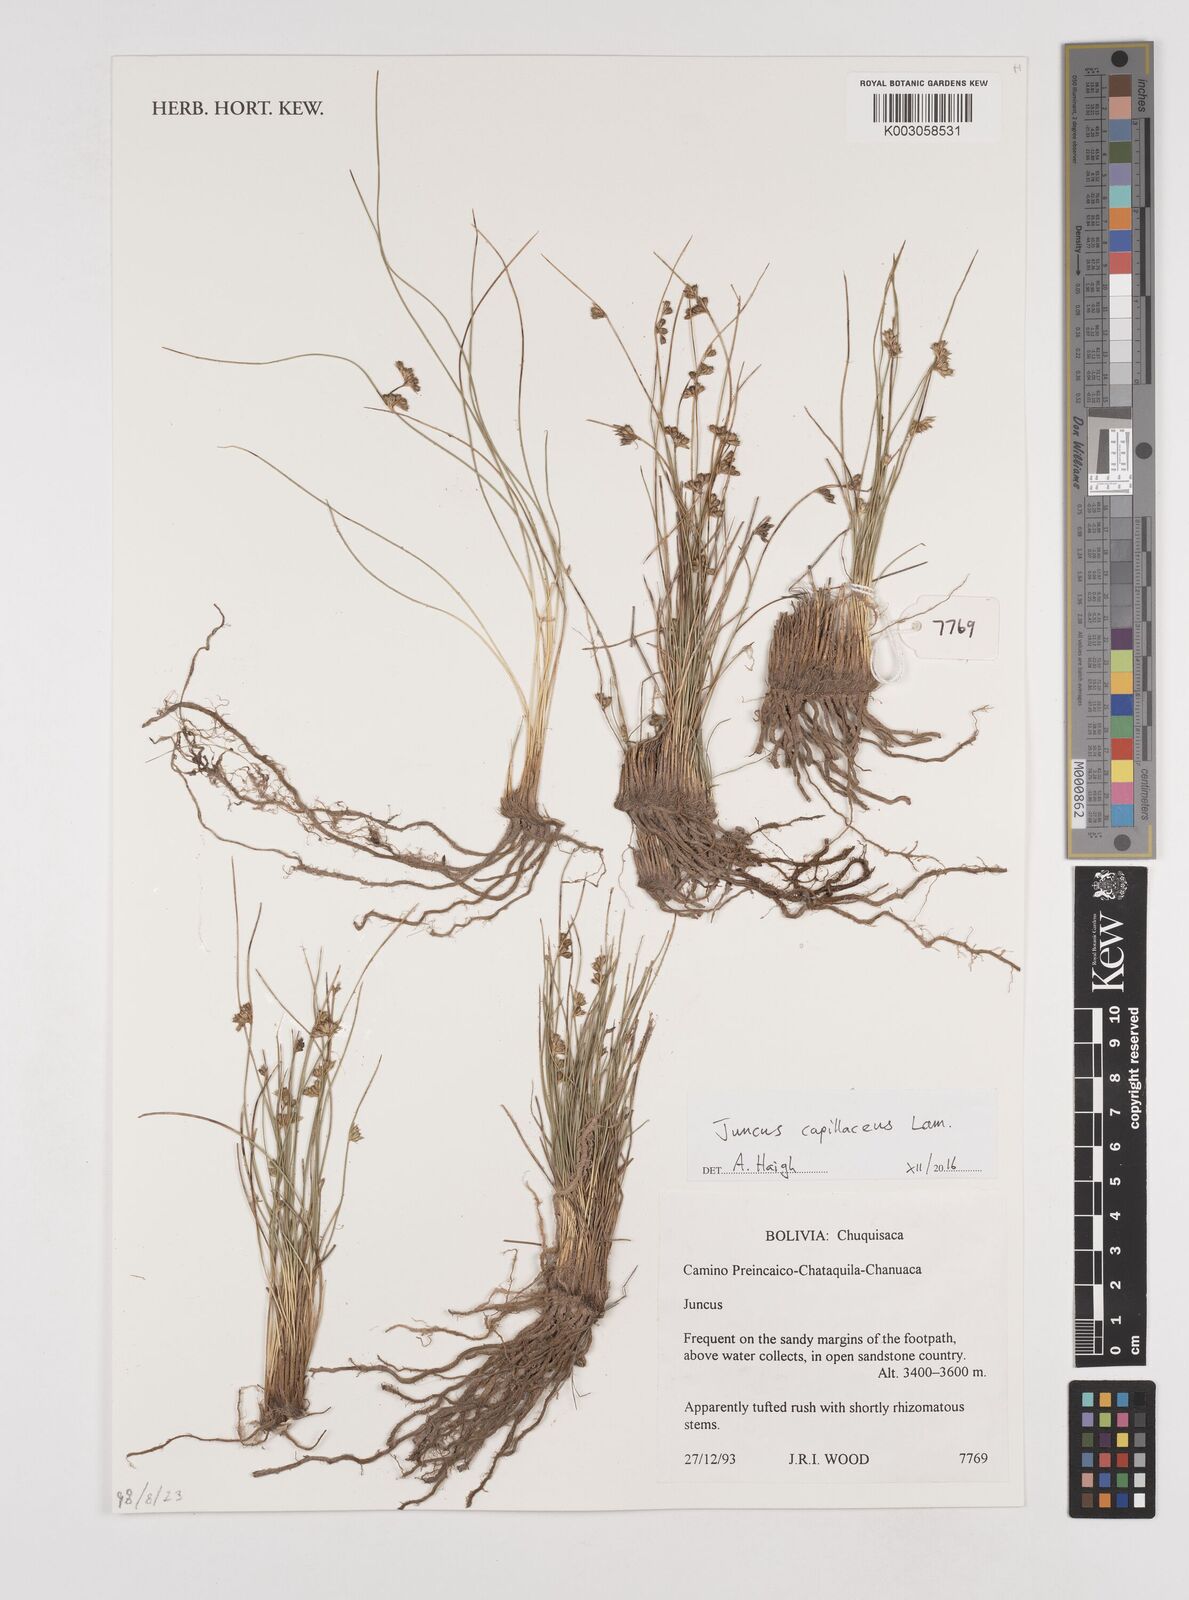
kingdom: Plantae
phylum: Tracheophyta
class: Liliopsida
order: Poales
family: Juncaceae
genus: Juncus
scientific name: Juncus capillaceus
